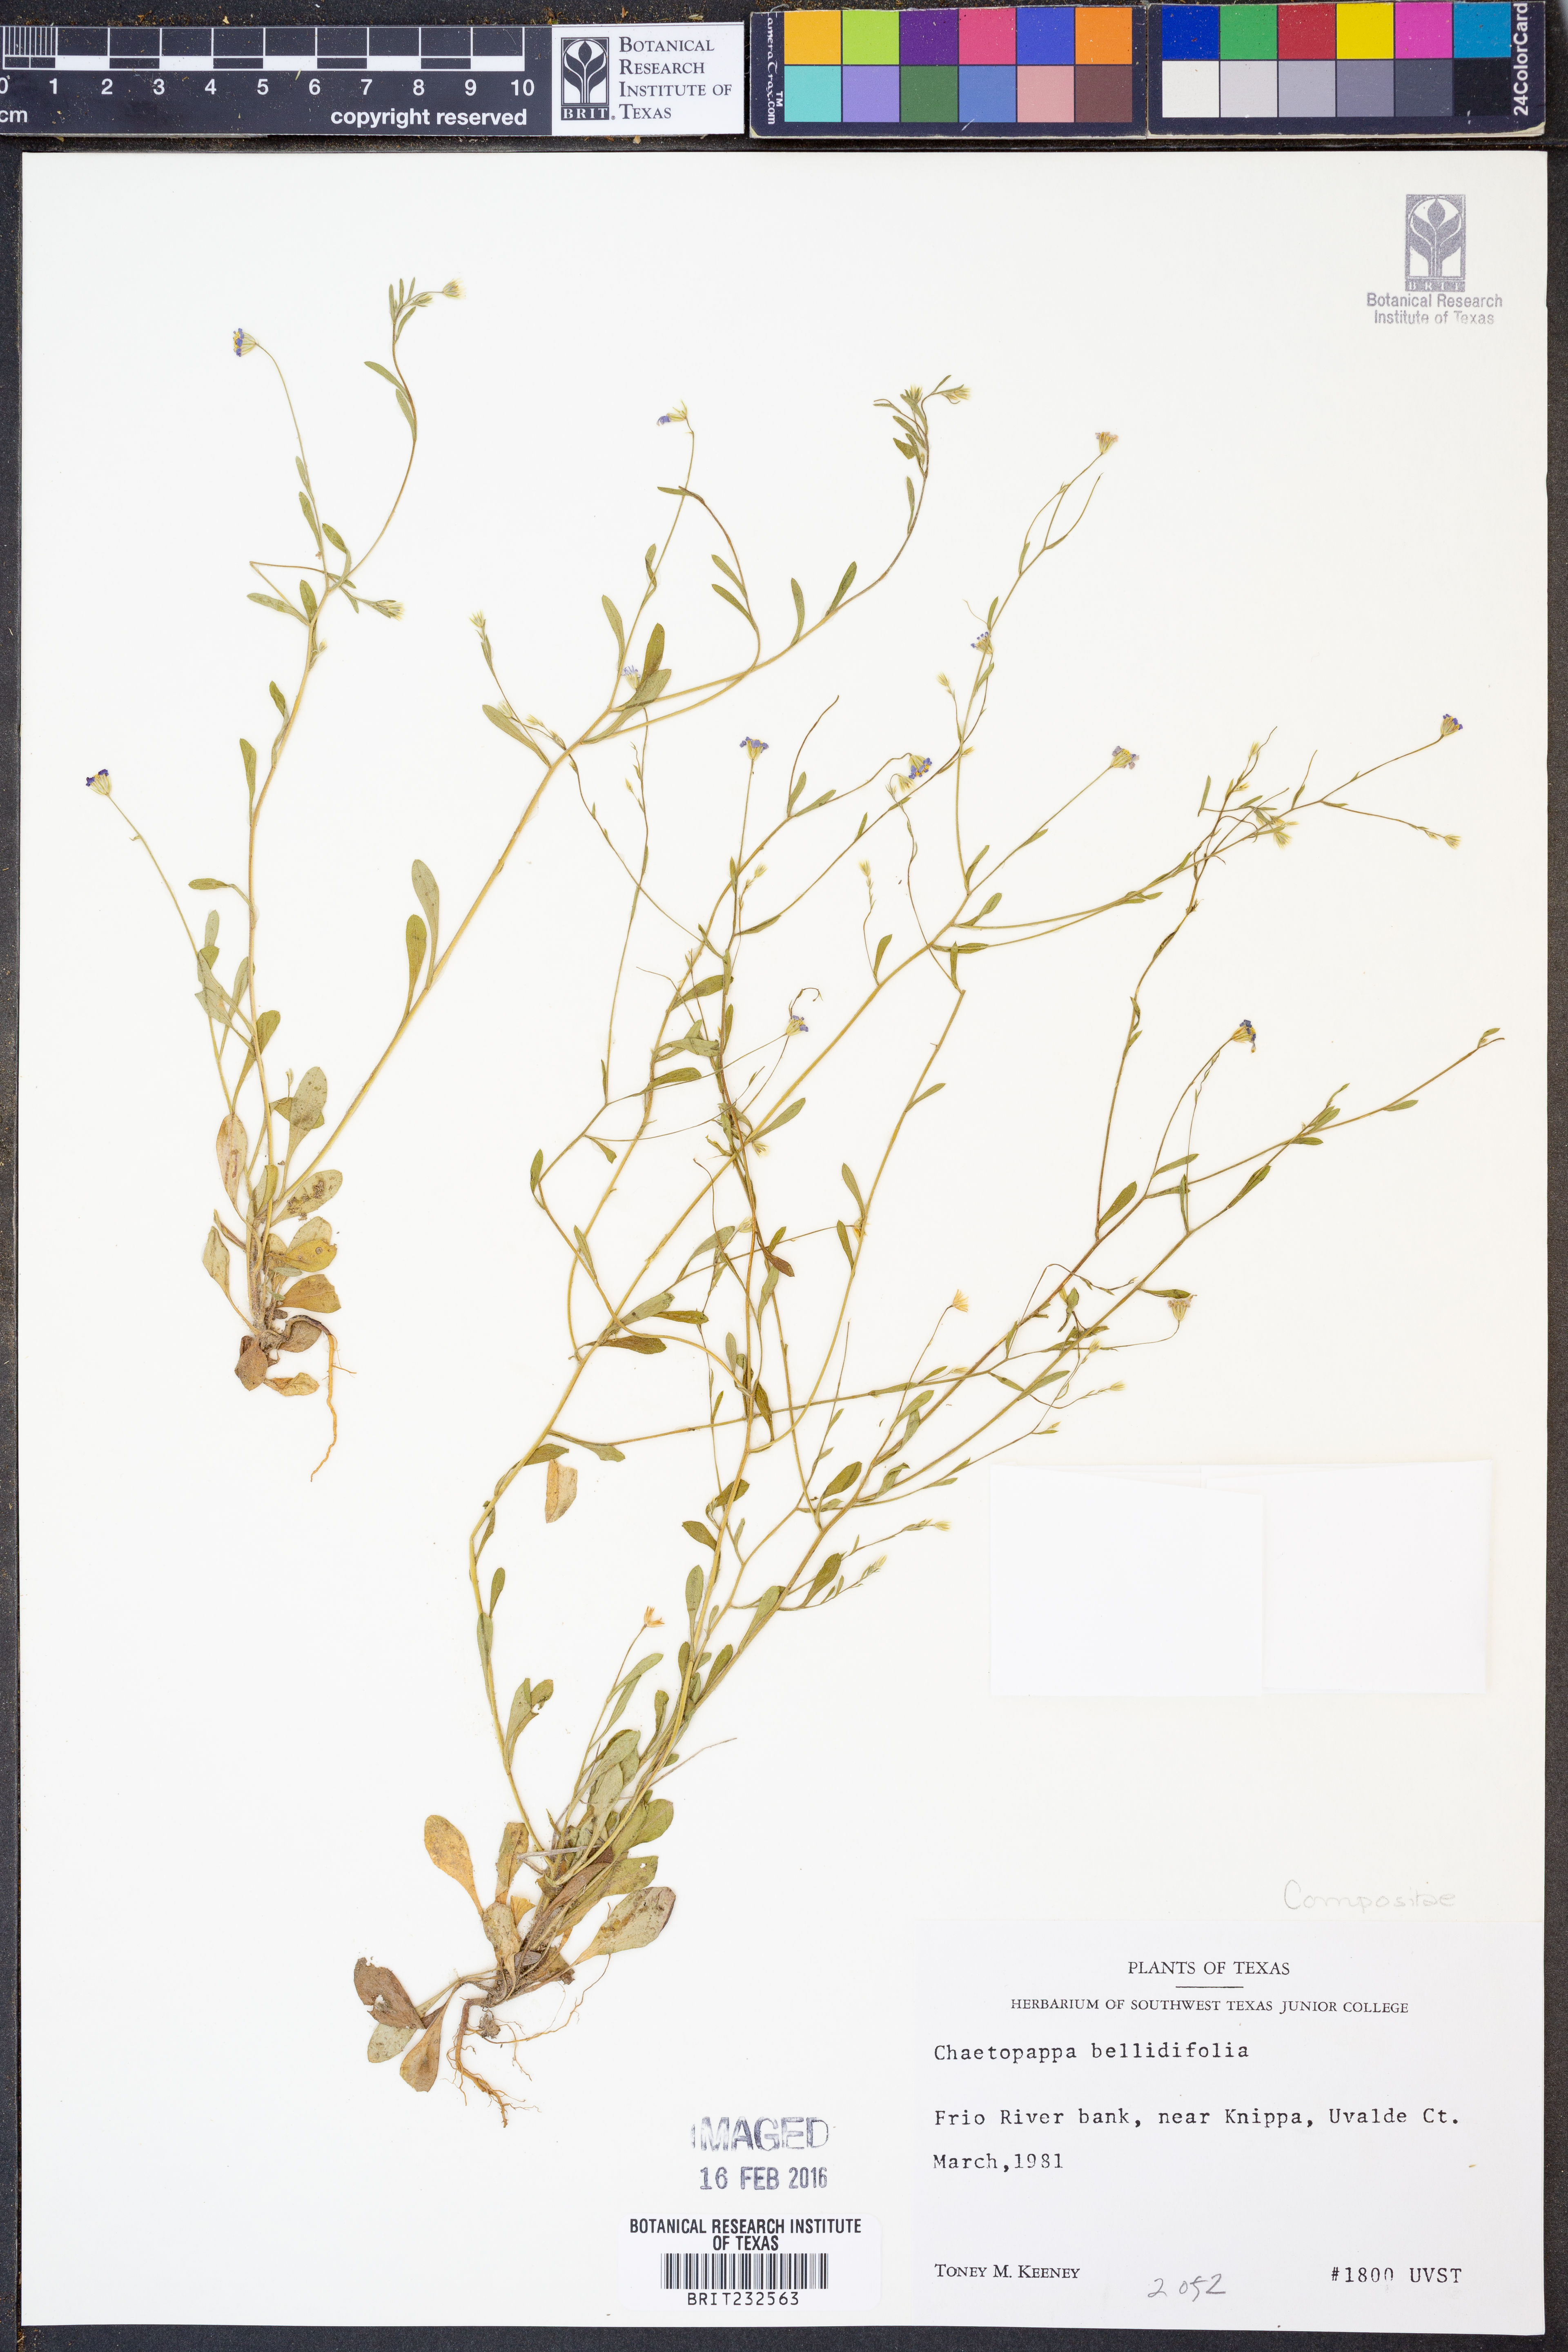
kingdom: Plantae
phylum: Tracheophyta
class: Magnoliopsida
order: Asterales
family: Asteraceae
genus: Chaetopappa
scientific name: Chaetopappa bellidifolia
